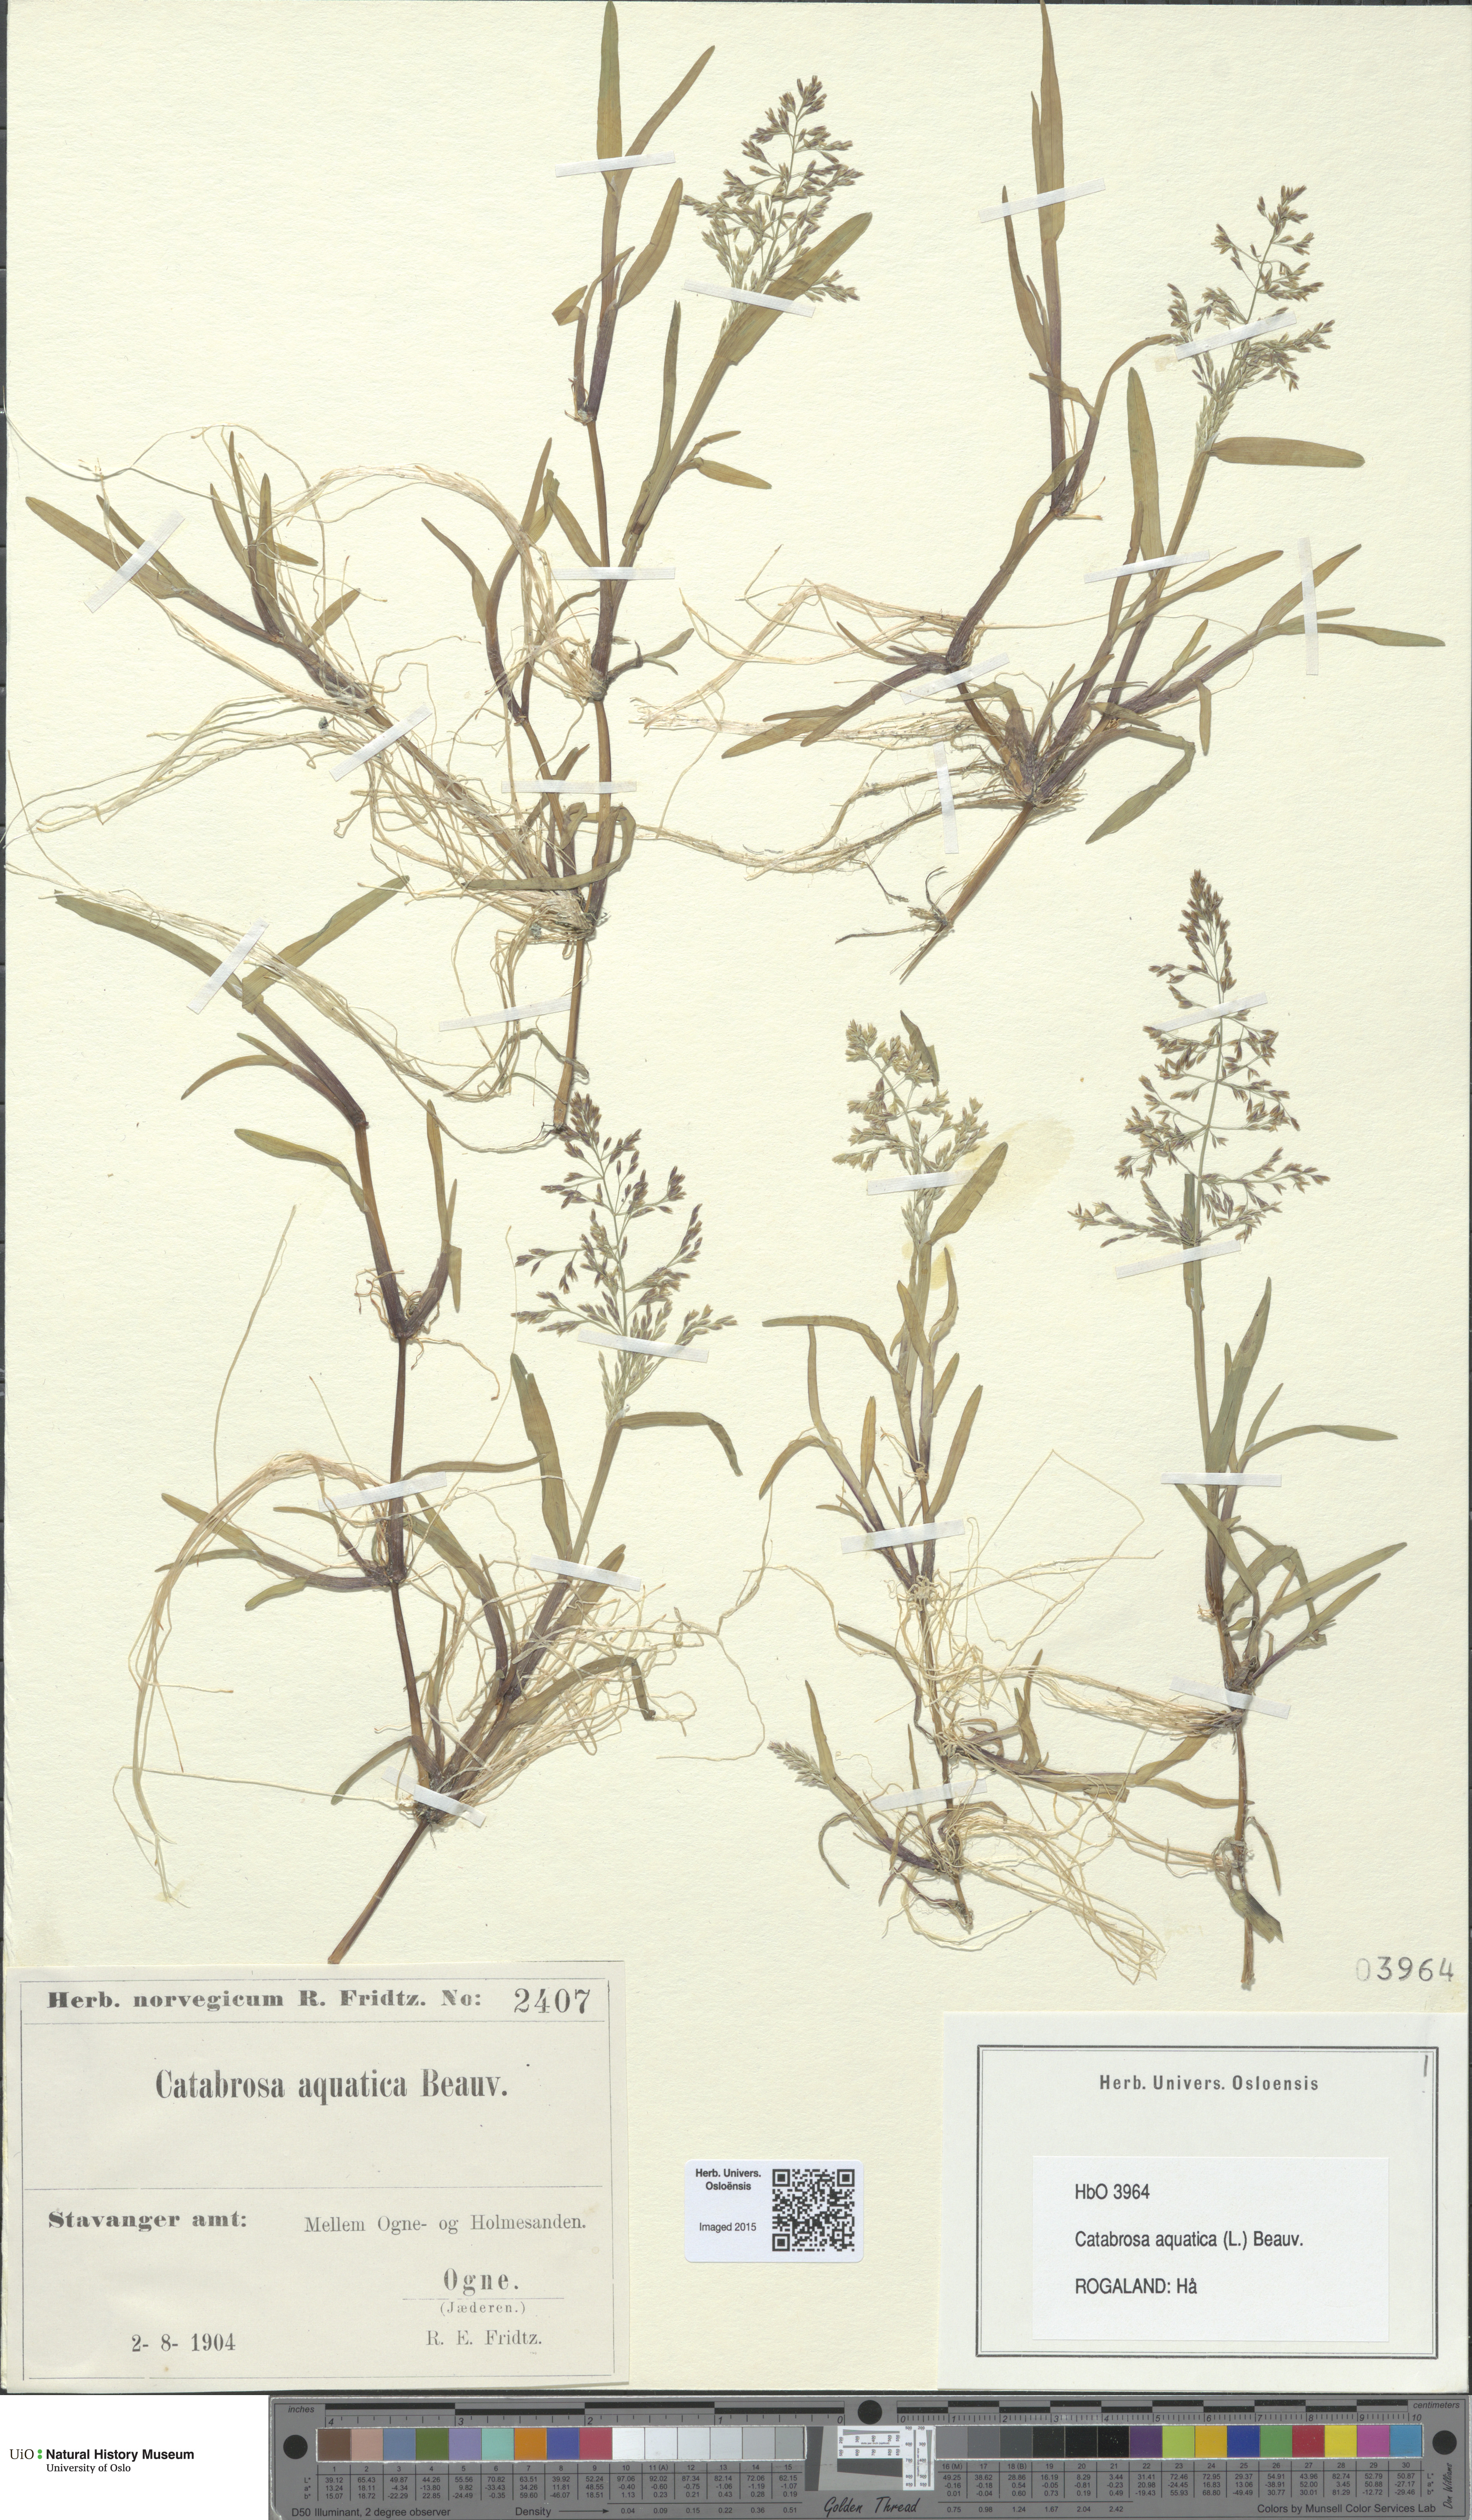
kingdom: Plantae
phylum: Tracheophyta
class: Liliopsida
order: Poales
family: Poaceae
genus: Catabrosa
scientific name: Catabrosa aquatica
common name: Whorl-grass
